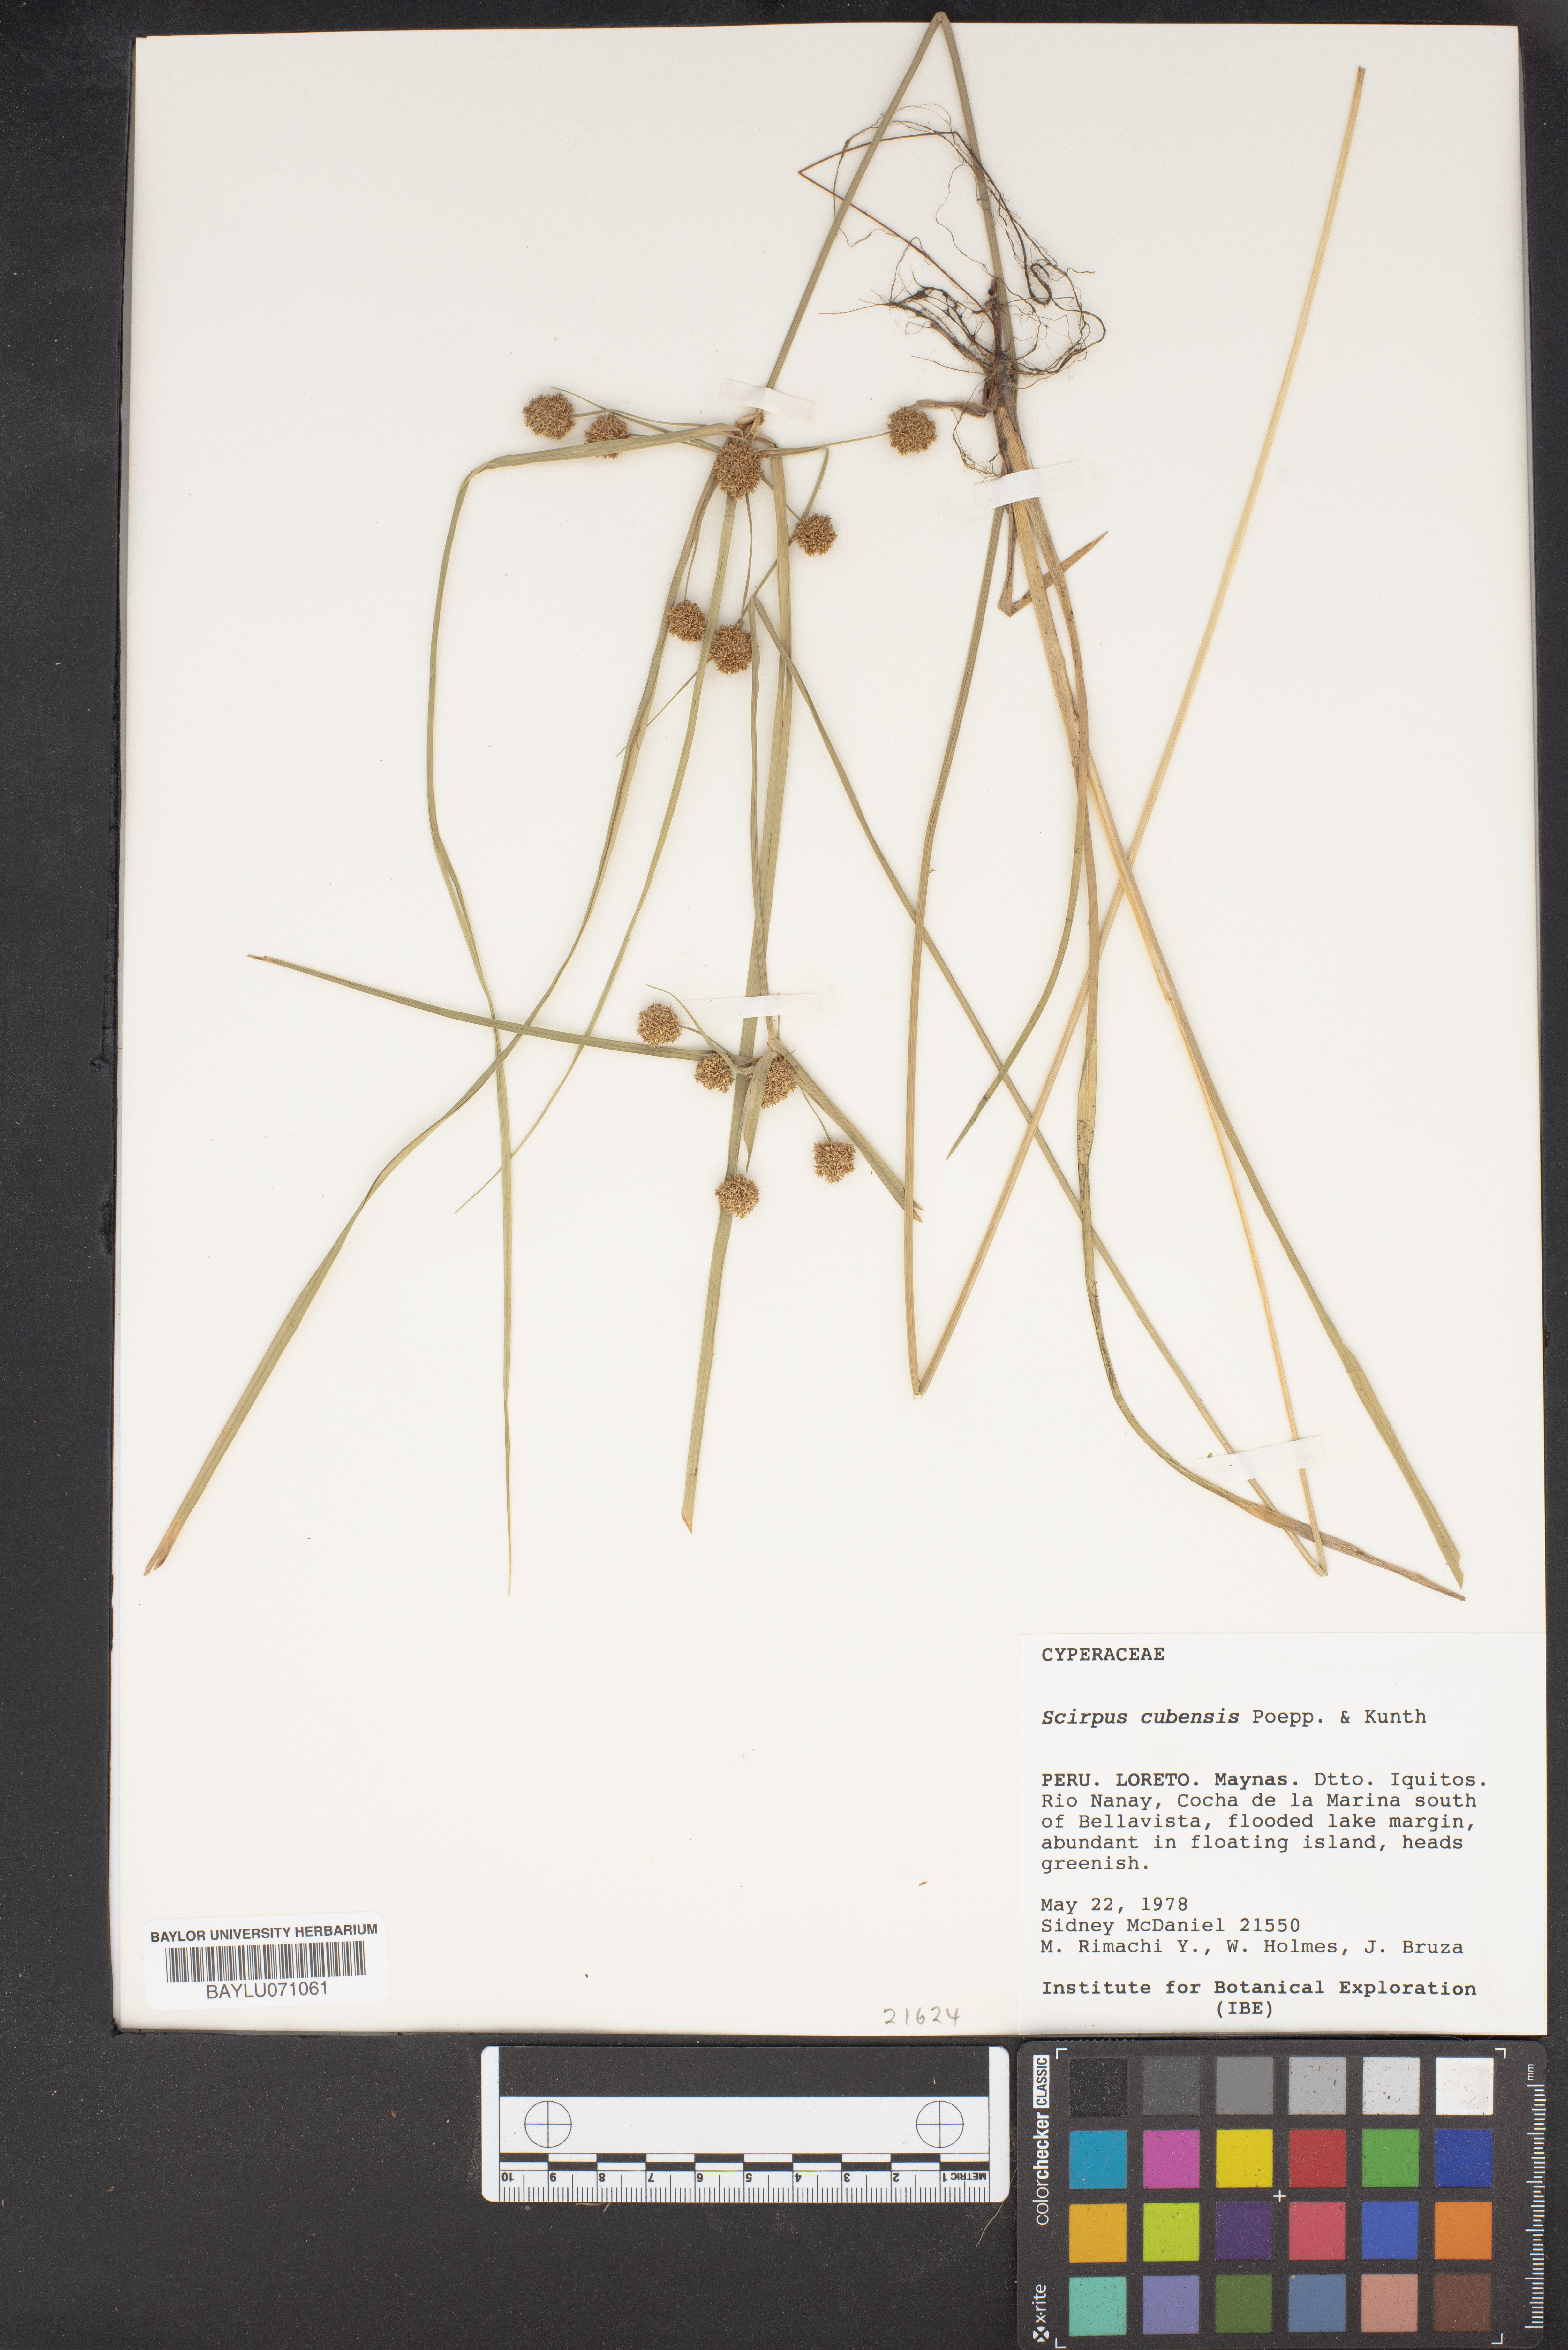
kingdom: Plantae
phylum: Tracheophyta
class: Liliopsida
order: Poales
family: Cyperaceae
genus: Cyperus
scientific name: Cyperus blepharoleptos
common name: Cuban bulrush
